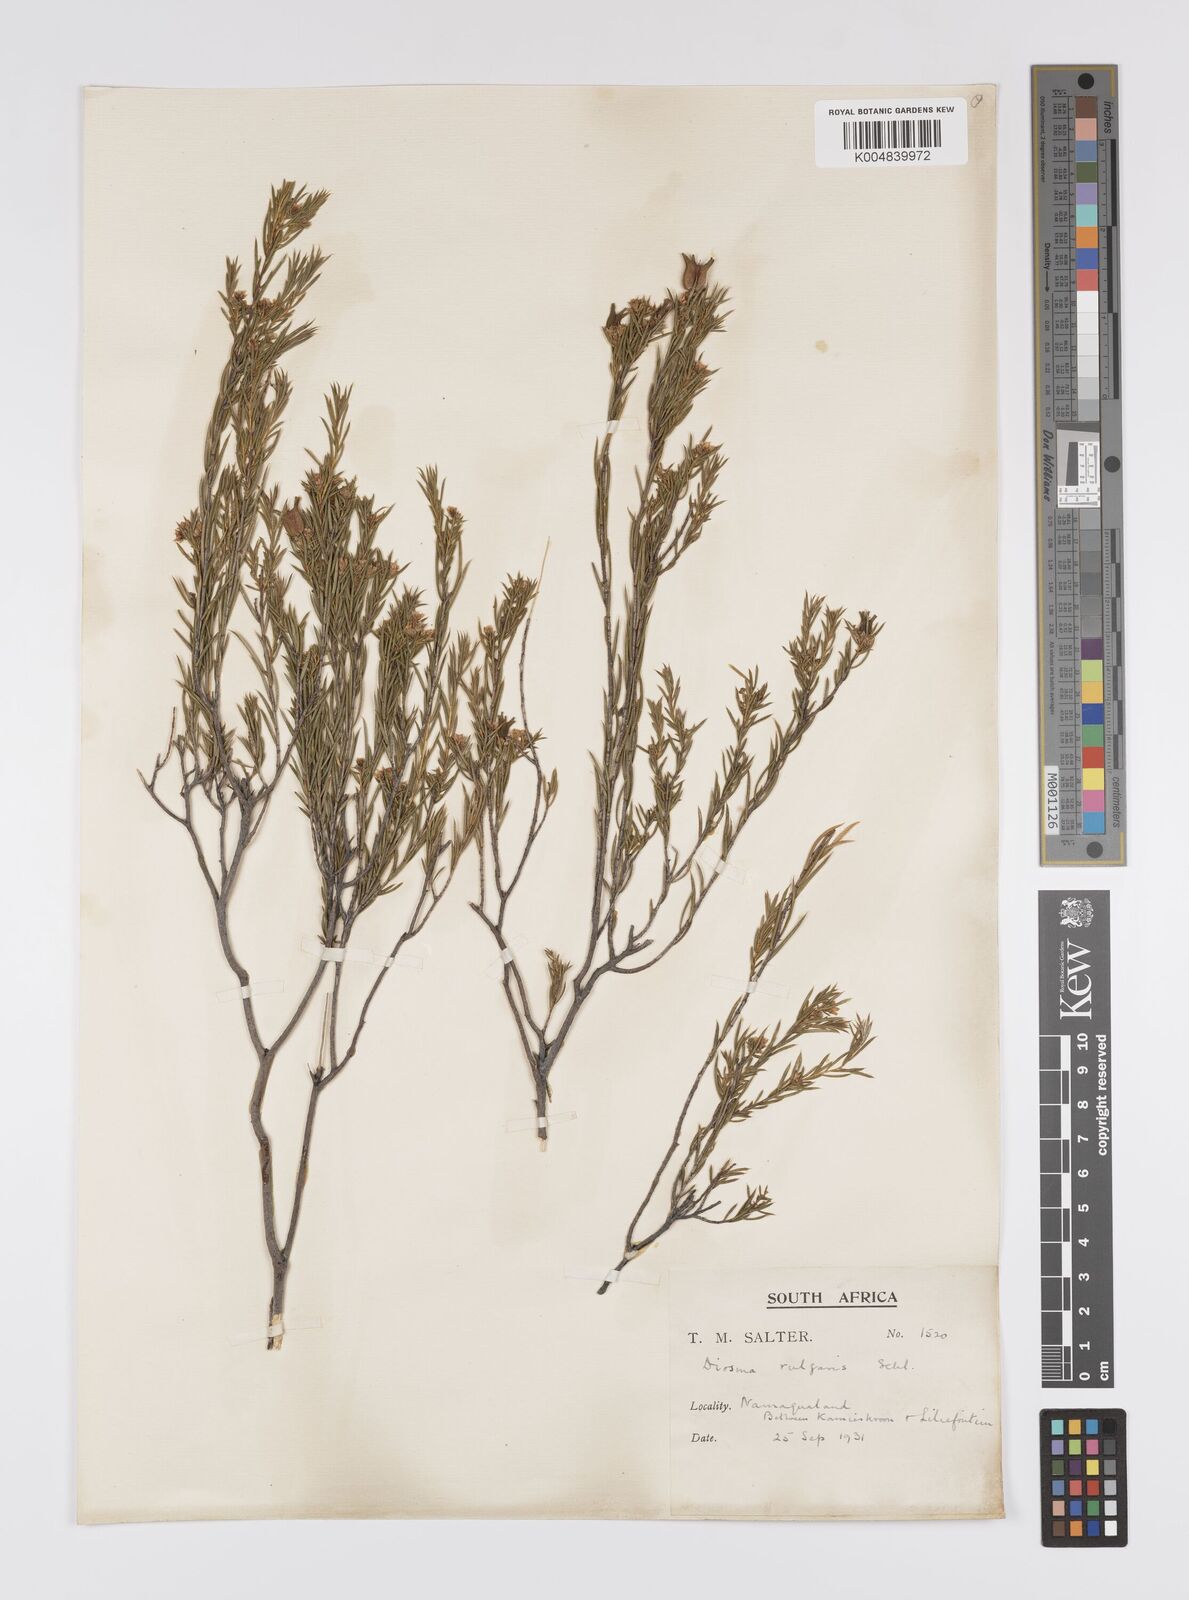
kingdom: Plantae
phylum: Tracheophyta
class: Magnoliopsida
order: Sapindales
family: Rutaceae
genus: Diosma
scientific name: Diosma acmaeophylla
